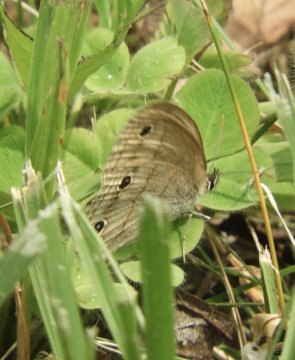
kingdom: Animalia
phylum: Arthropoda
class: Insecta
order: Lepidoptera
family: Nymphalidae
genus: Euptychia
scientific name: Euptychia cymela
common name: Little Wood Satyr
